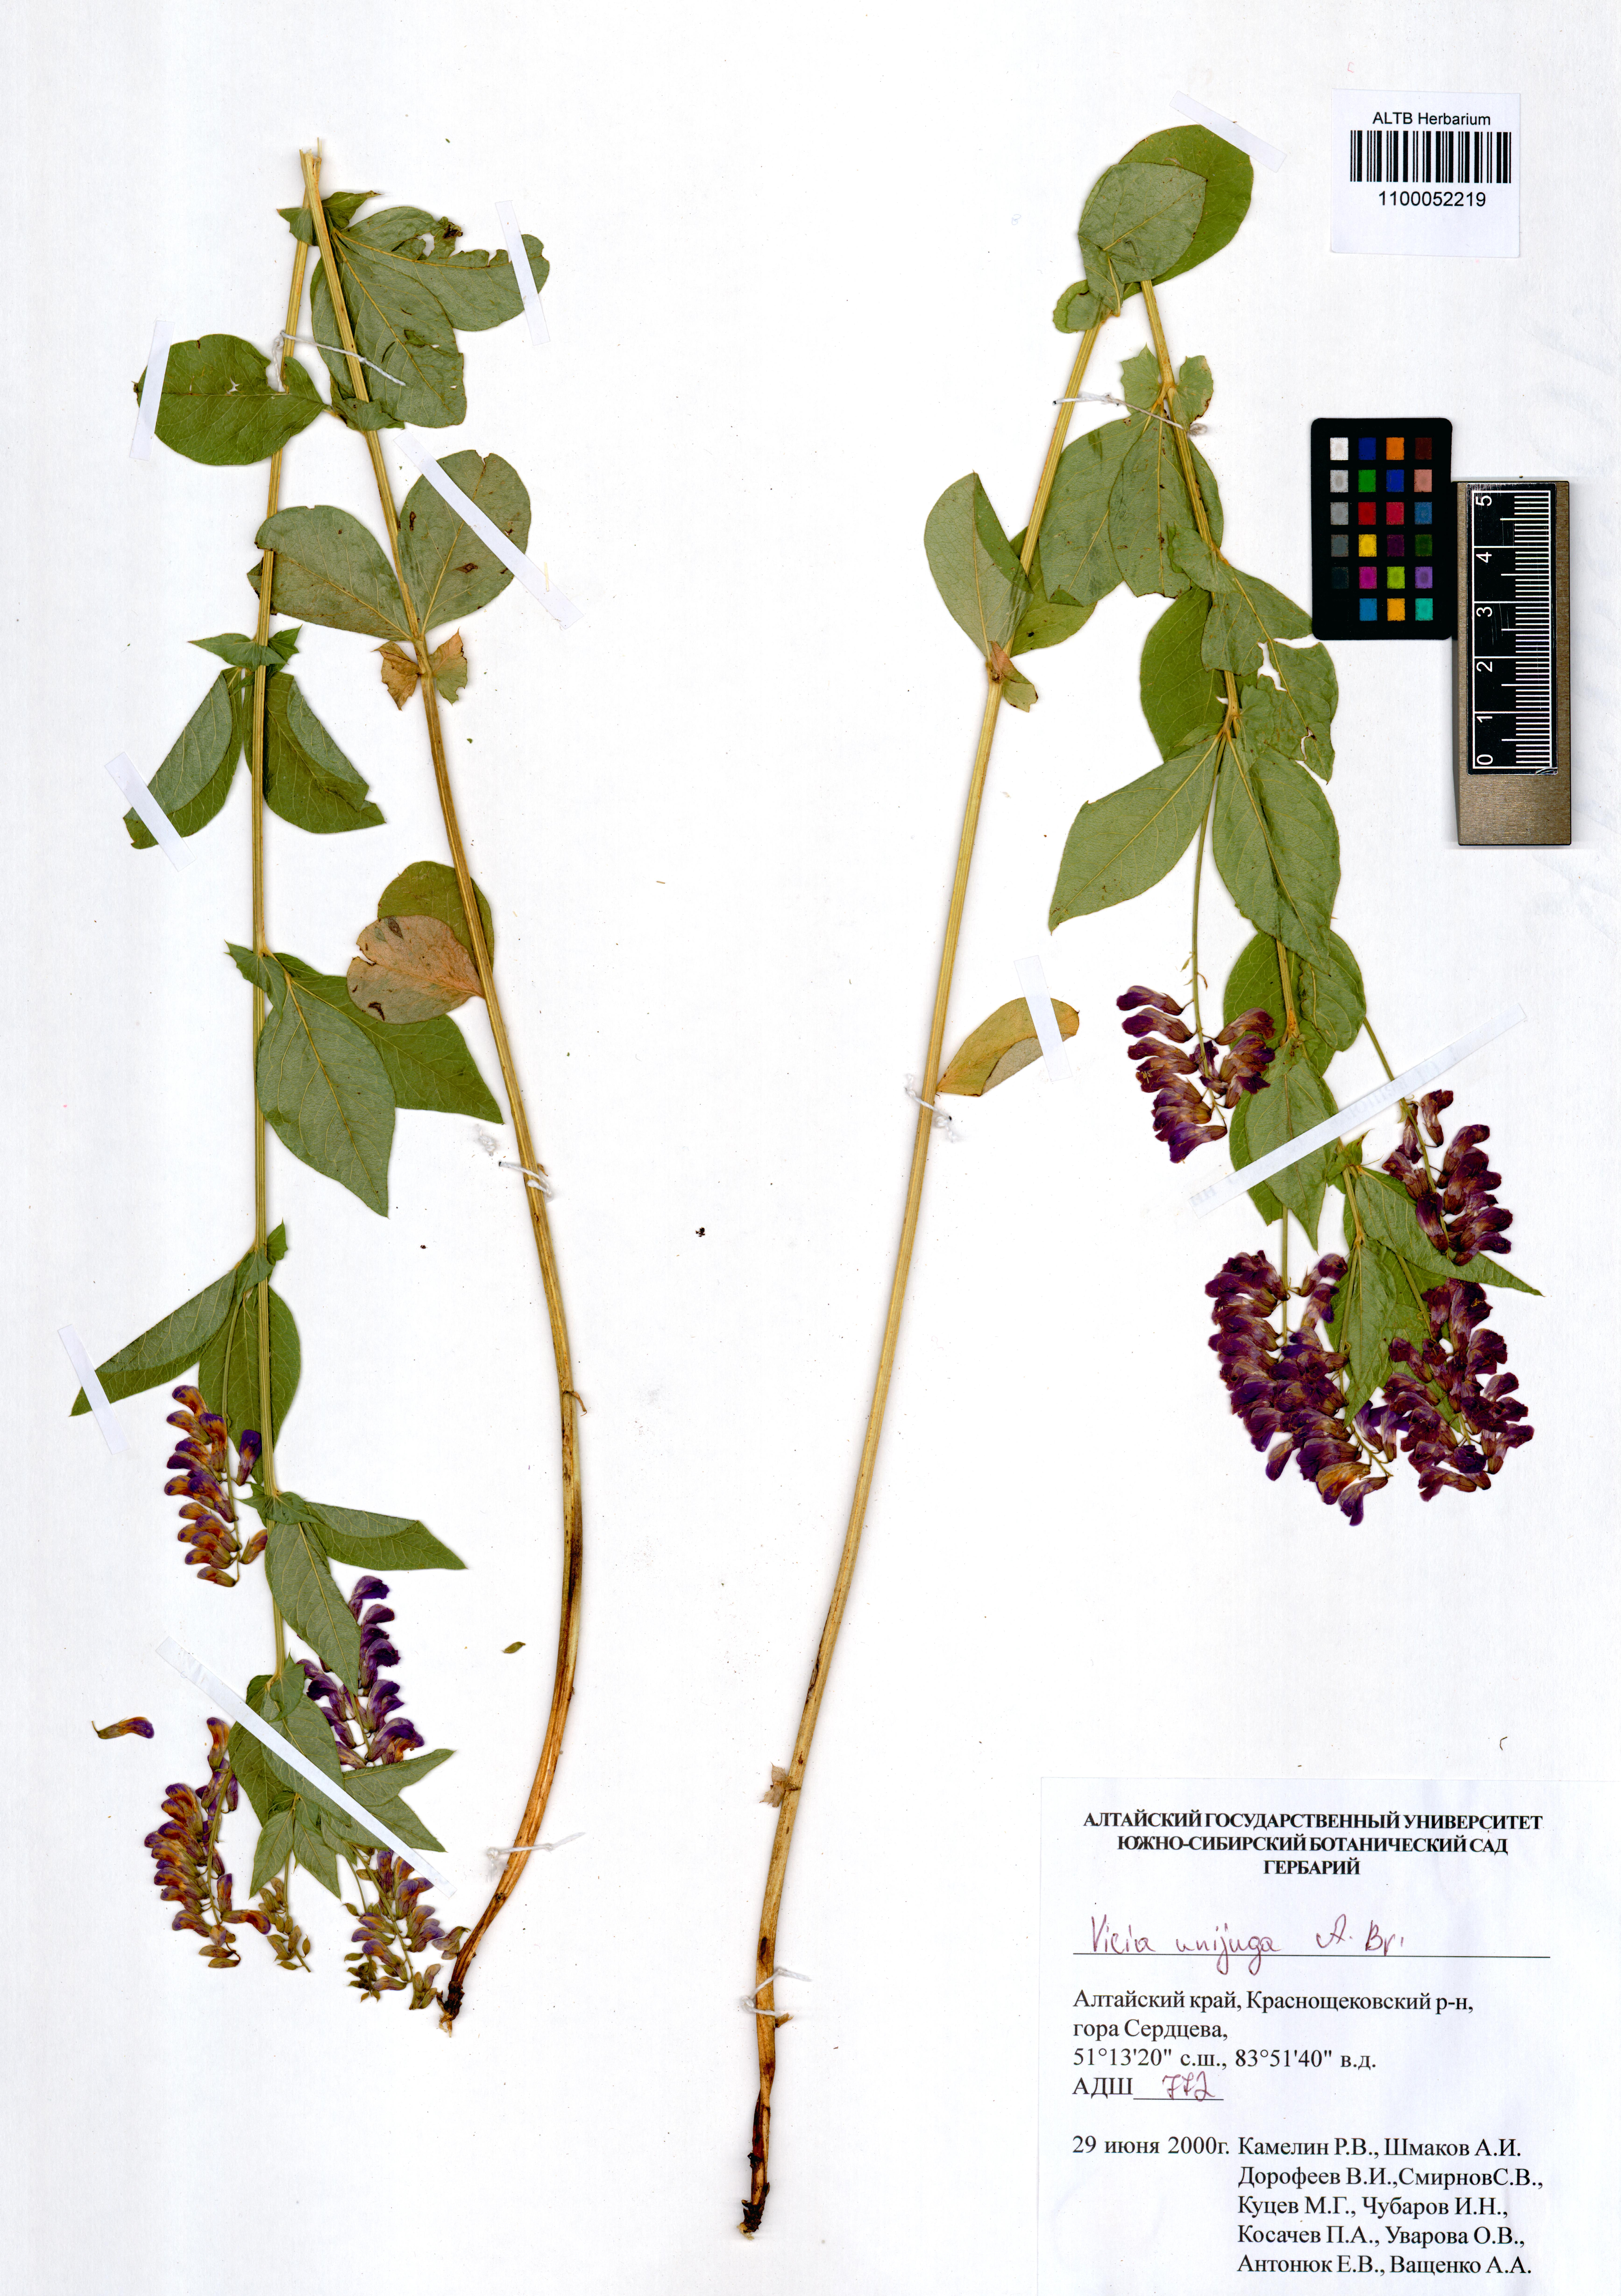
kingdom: Plantae
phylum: Tracheophyta
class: Magnoliopsida
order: Fabales
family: Fabaceae
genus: Vicia
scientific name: Vicia unijuga
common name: Two-leaf vetch
